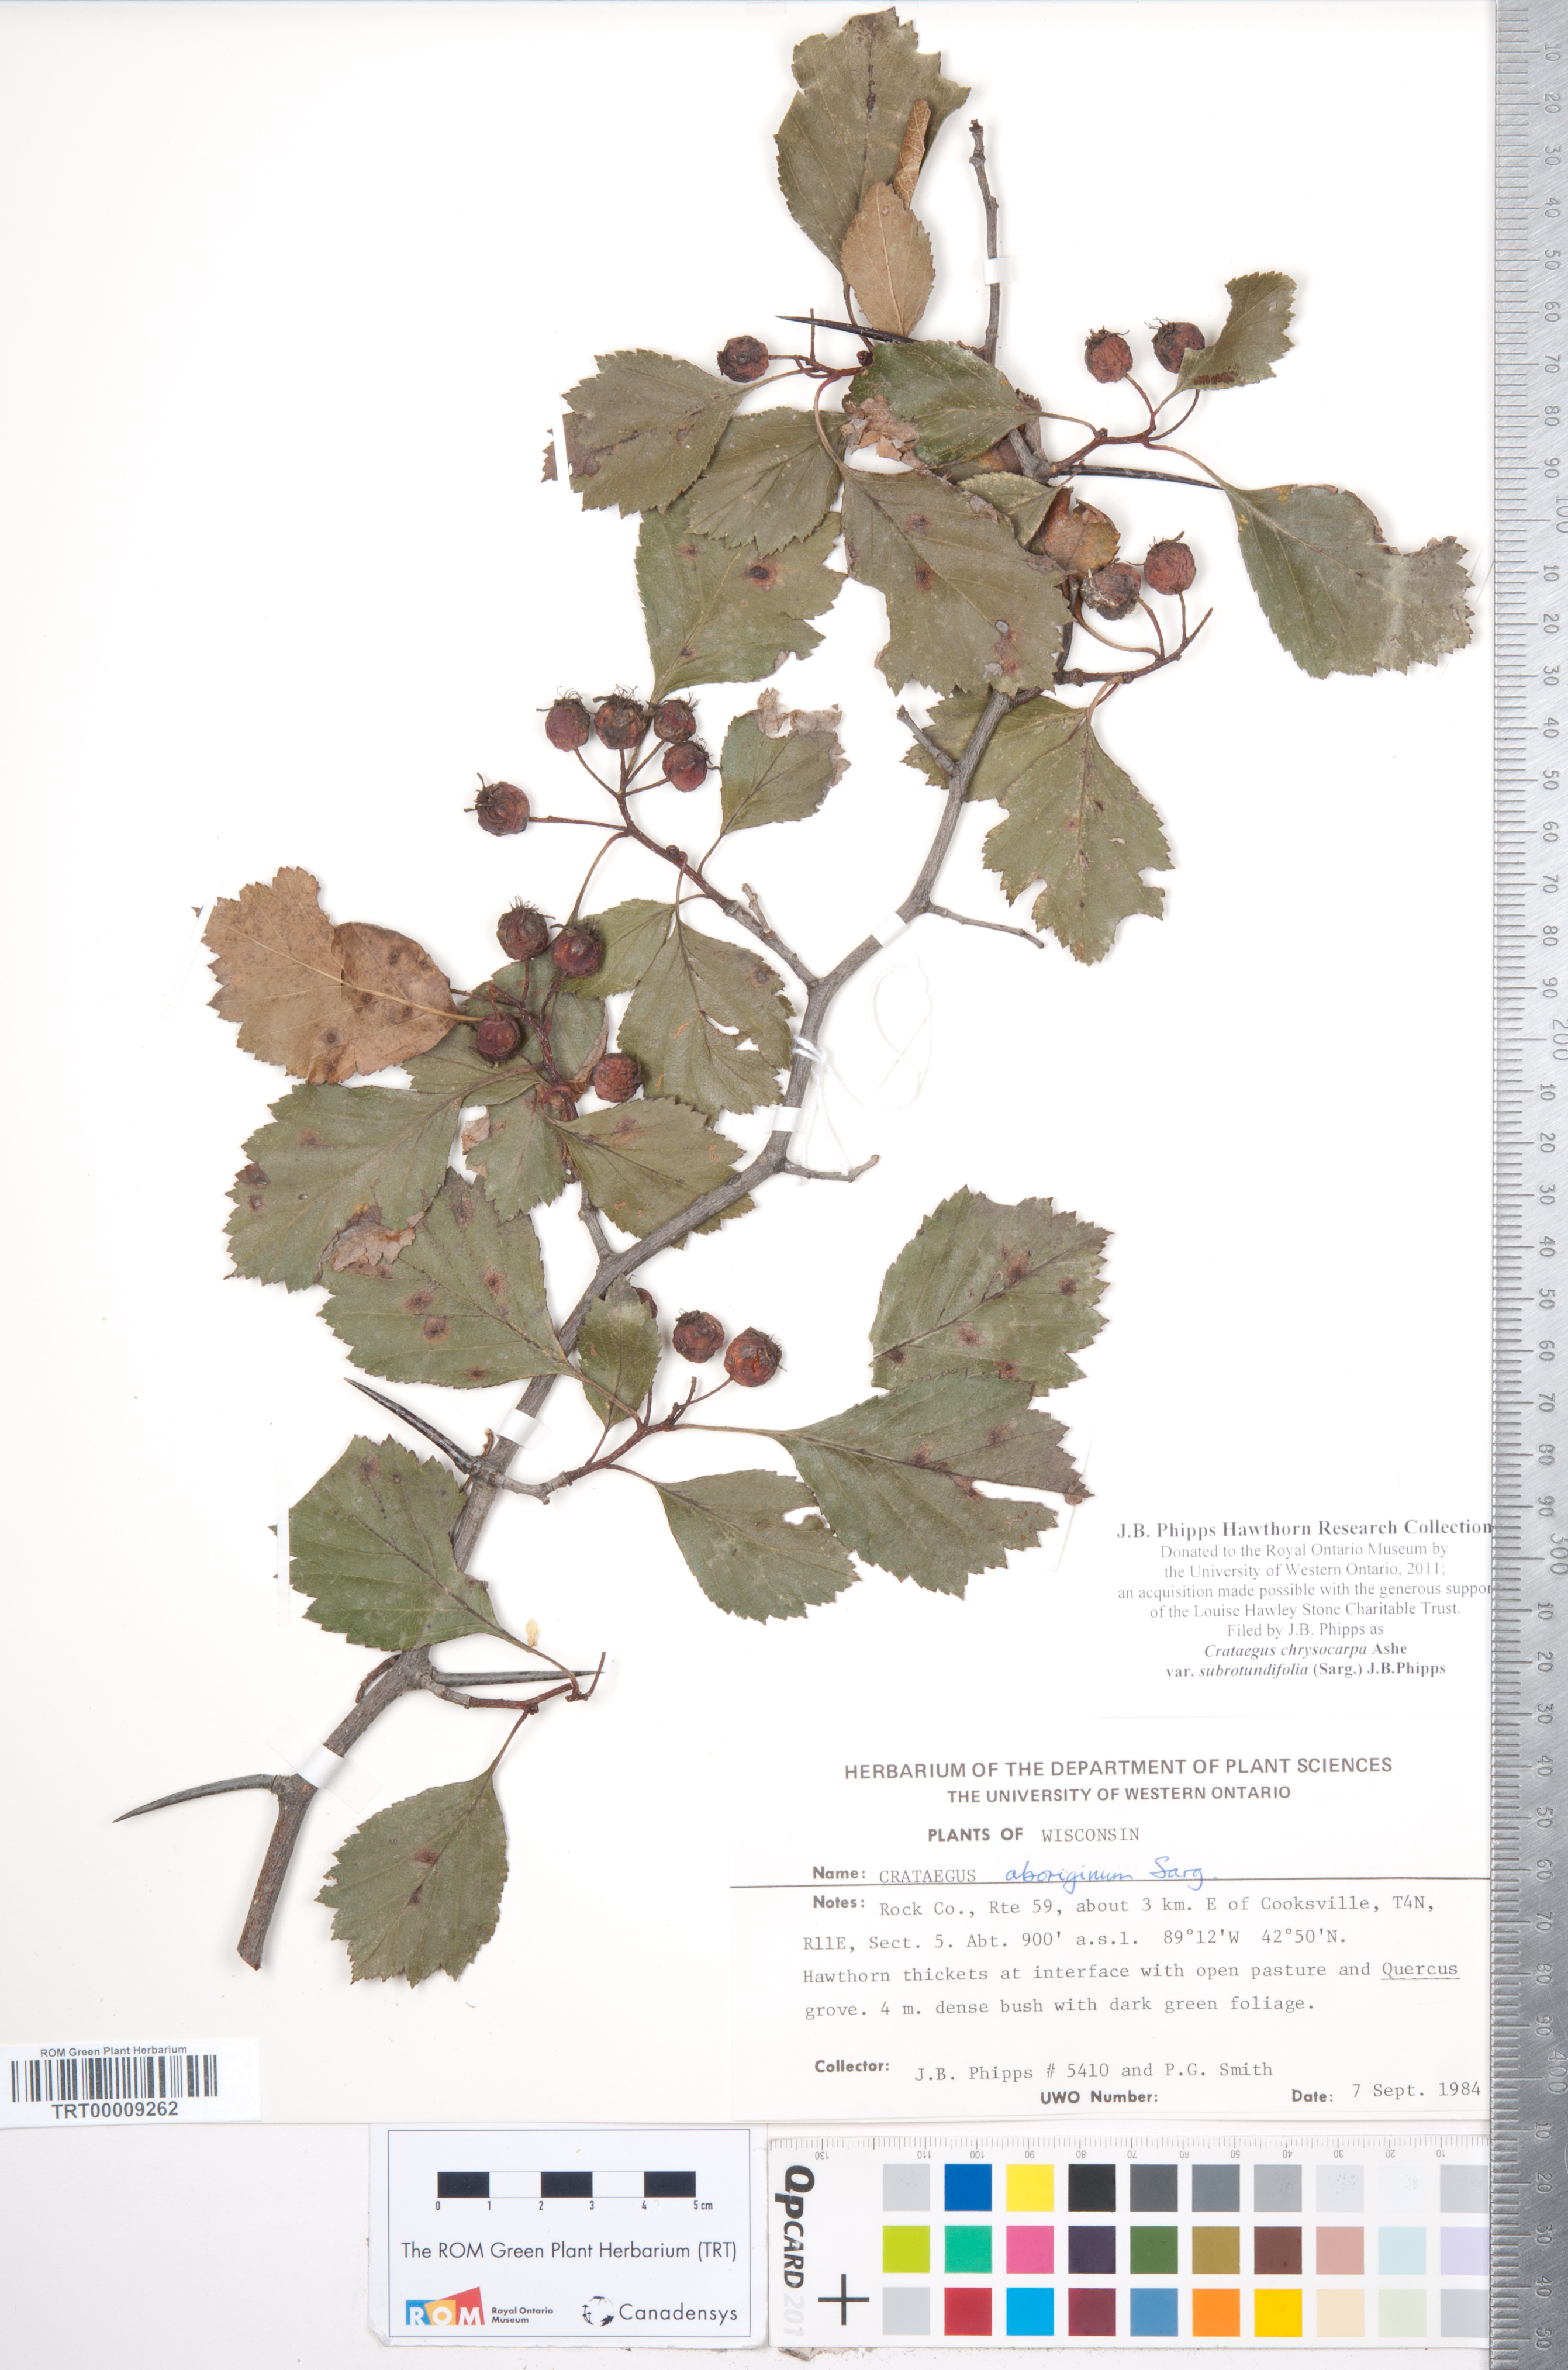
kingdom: Plantae
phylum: Tracheophyta
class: Magnoliopsida
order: Rosales
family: Rosaceae
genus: Crataegus
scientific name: Crataegus chrysocarpa
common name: Fire-berry hawthorn
